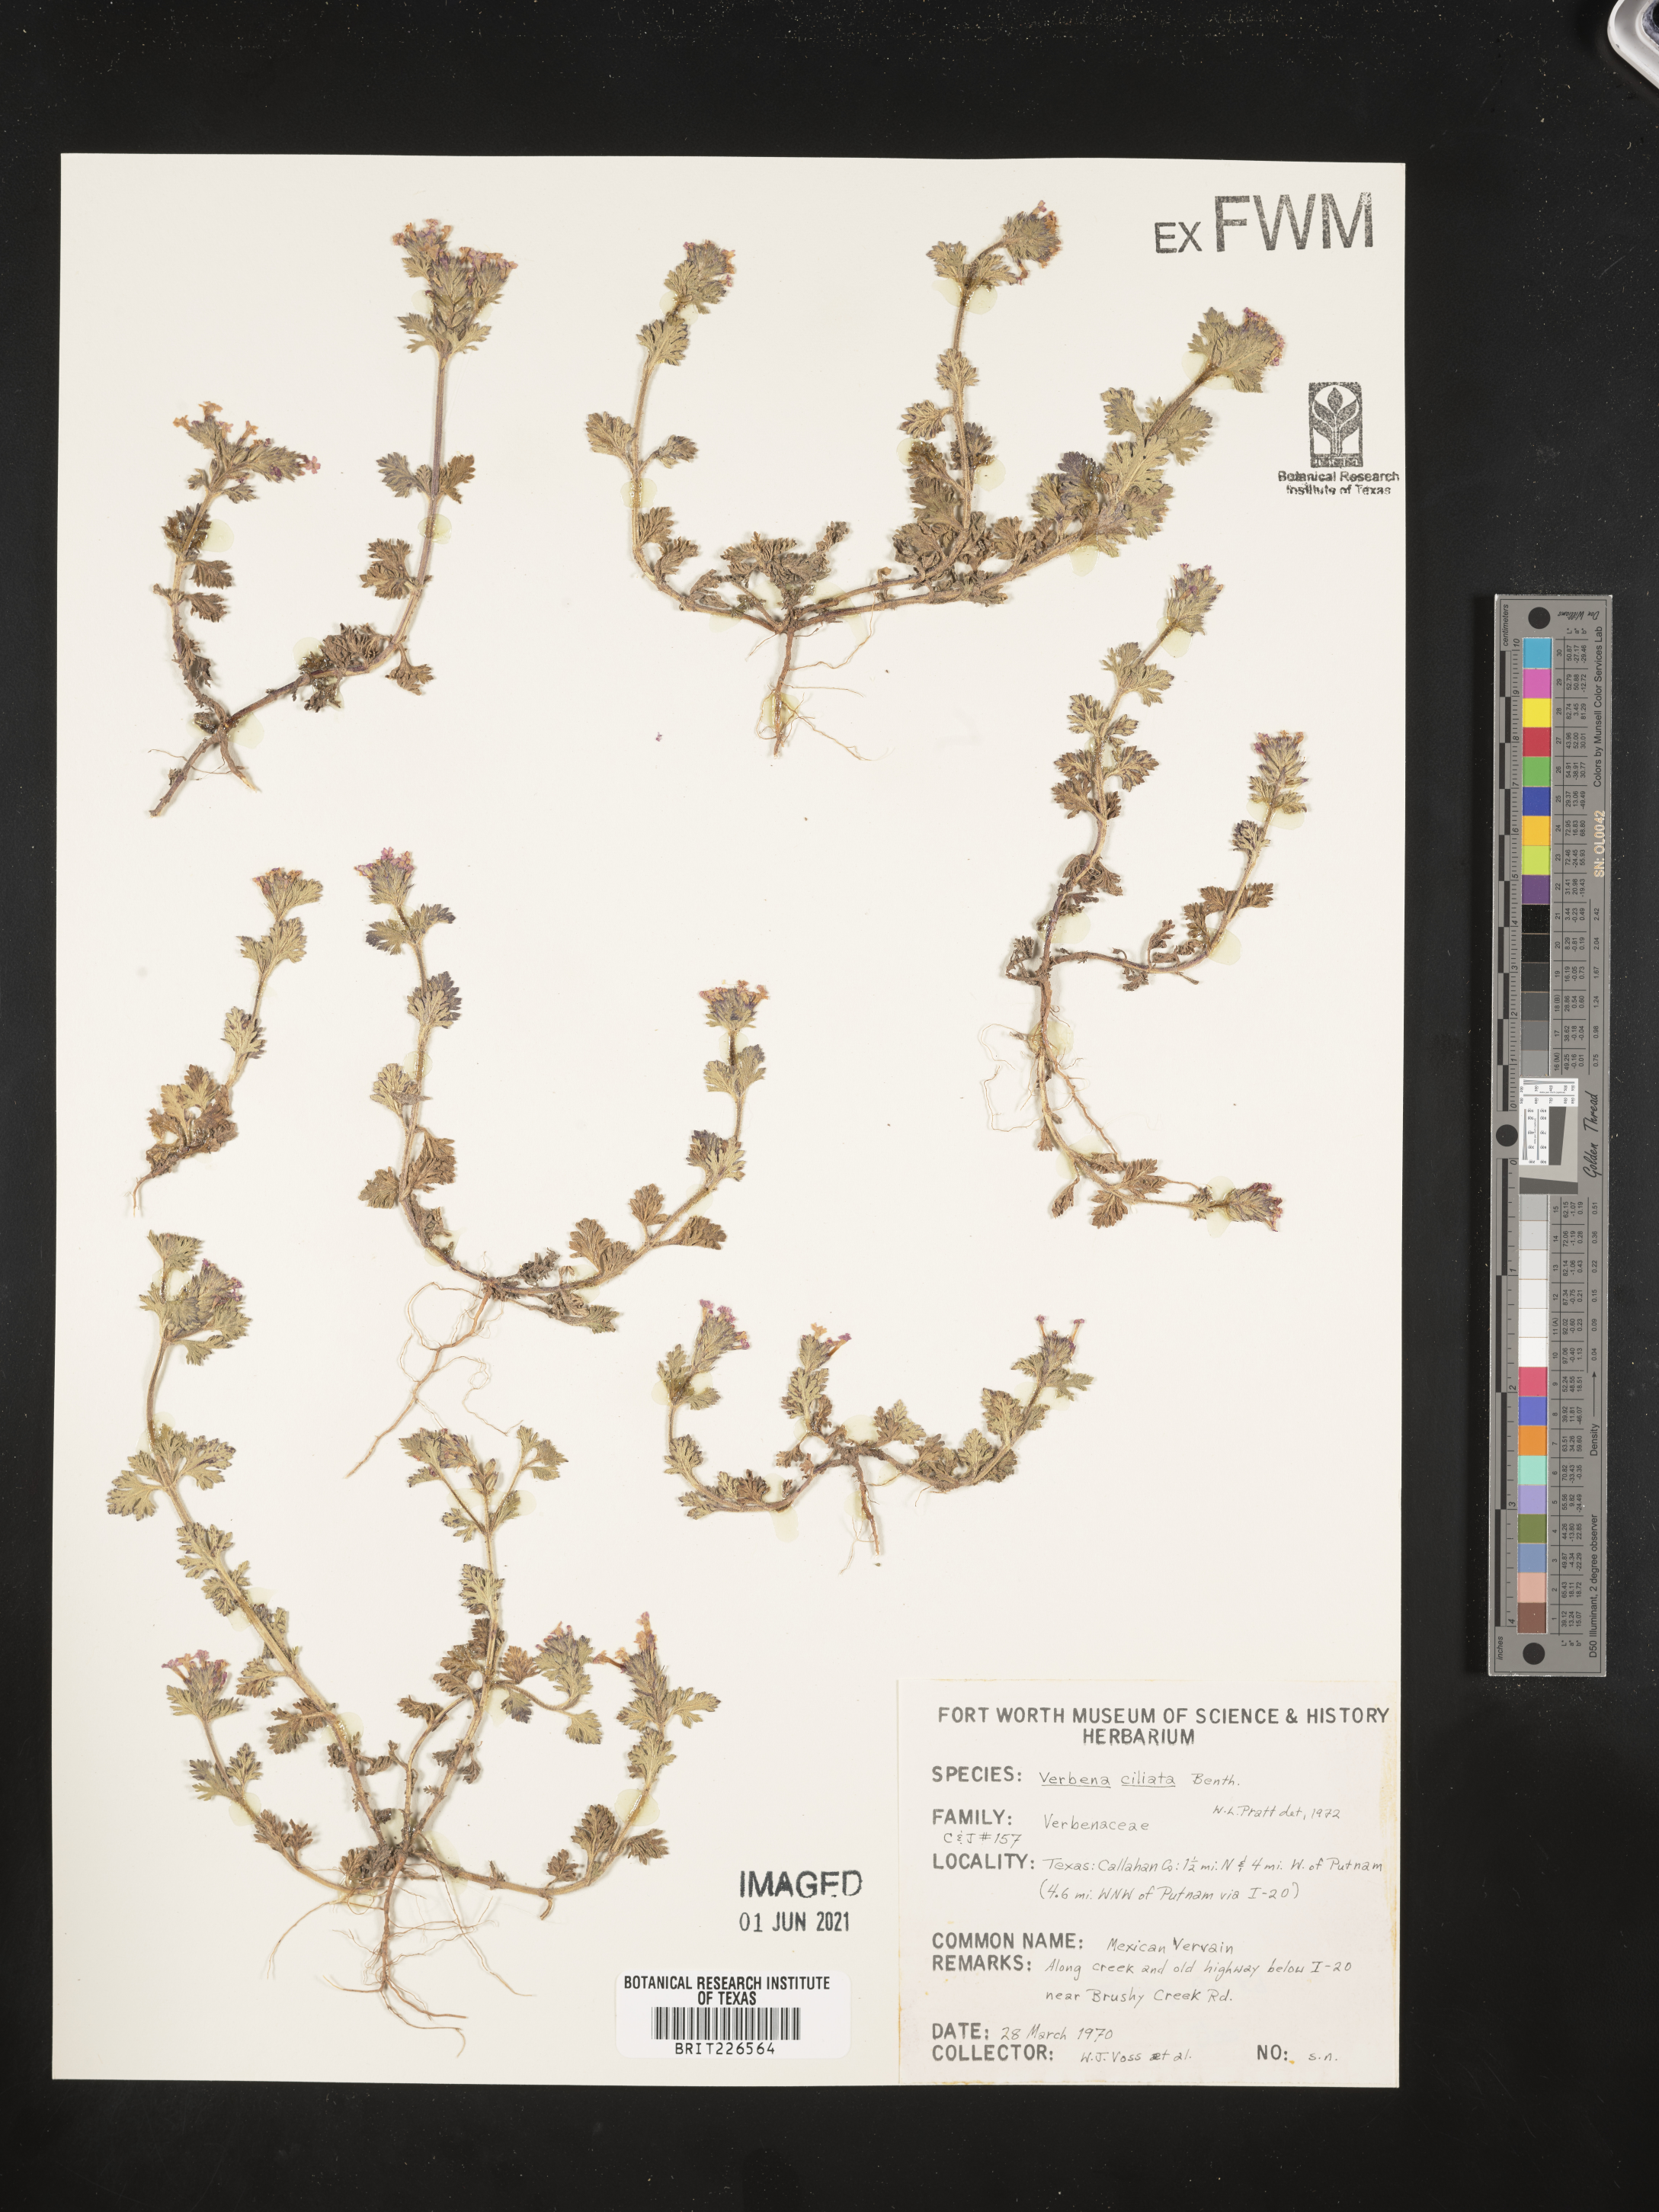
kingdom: Plantae
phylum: Tracheophyta
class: Magnoliopsida
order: Lamiales
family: Verbenaceae
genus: Verbena
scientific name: Verbena bipinnatifida
